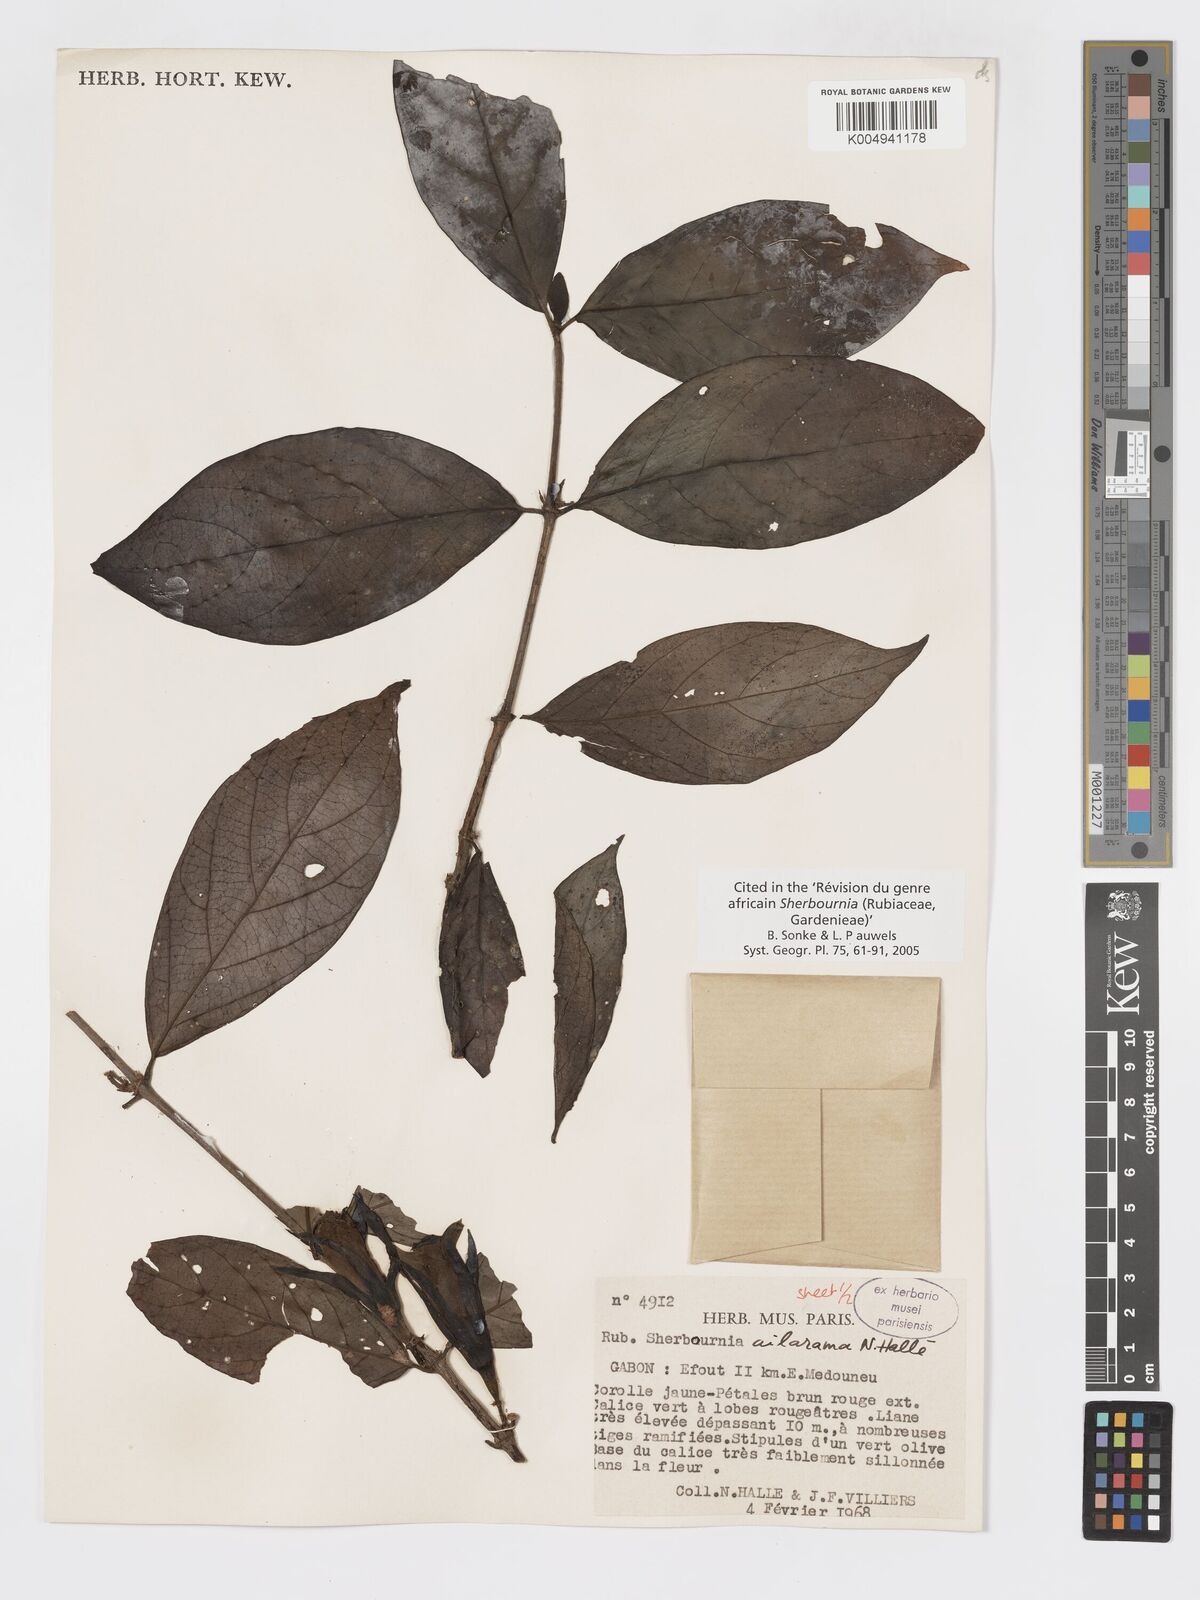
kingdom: Plantae
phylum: Tracheophyta
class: Magnoliopsida
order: Gentianales
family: Rubiaceae
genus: Sherbournia
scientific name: Sherbournia ailarama
